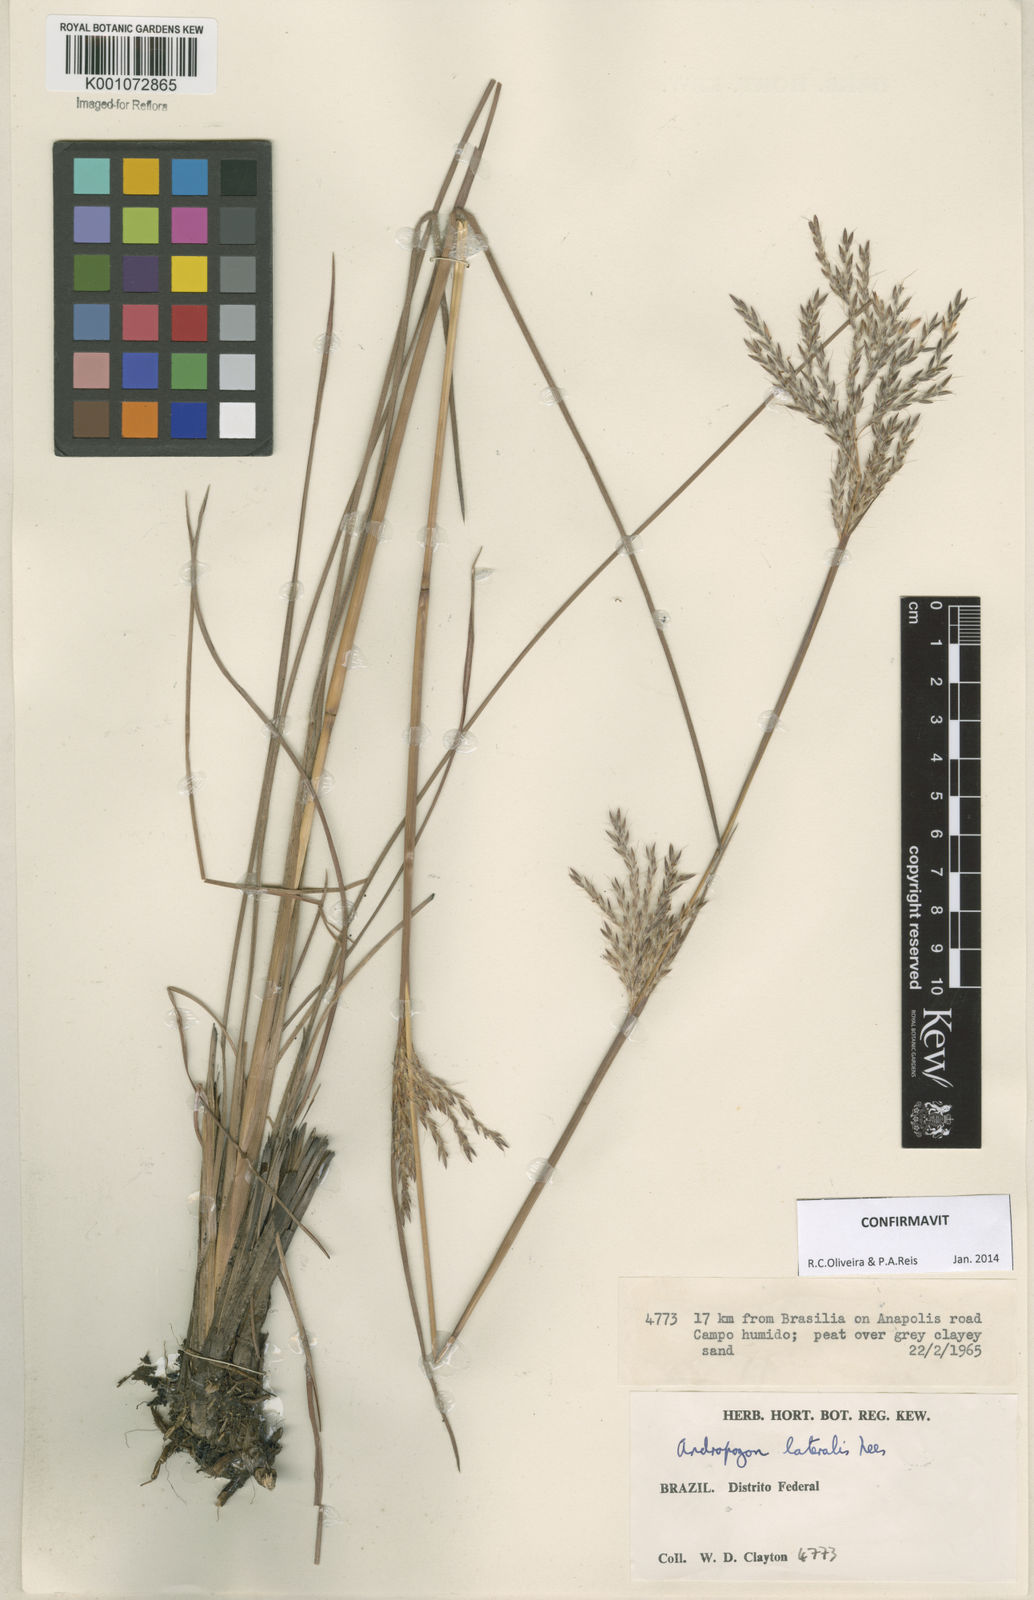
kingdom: Plantae
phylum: Tracheophyta
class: Liliopsida
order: Poales
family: Poaceae
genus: Andropogon
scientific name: Andropogon lateralis
